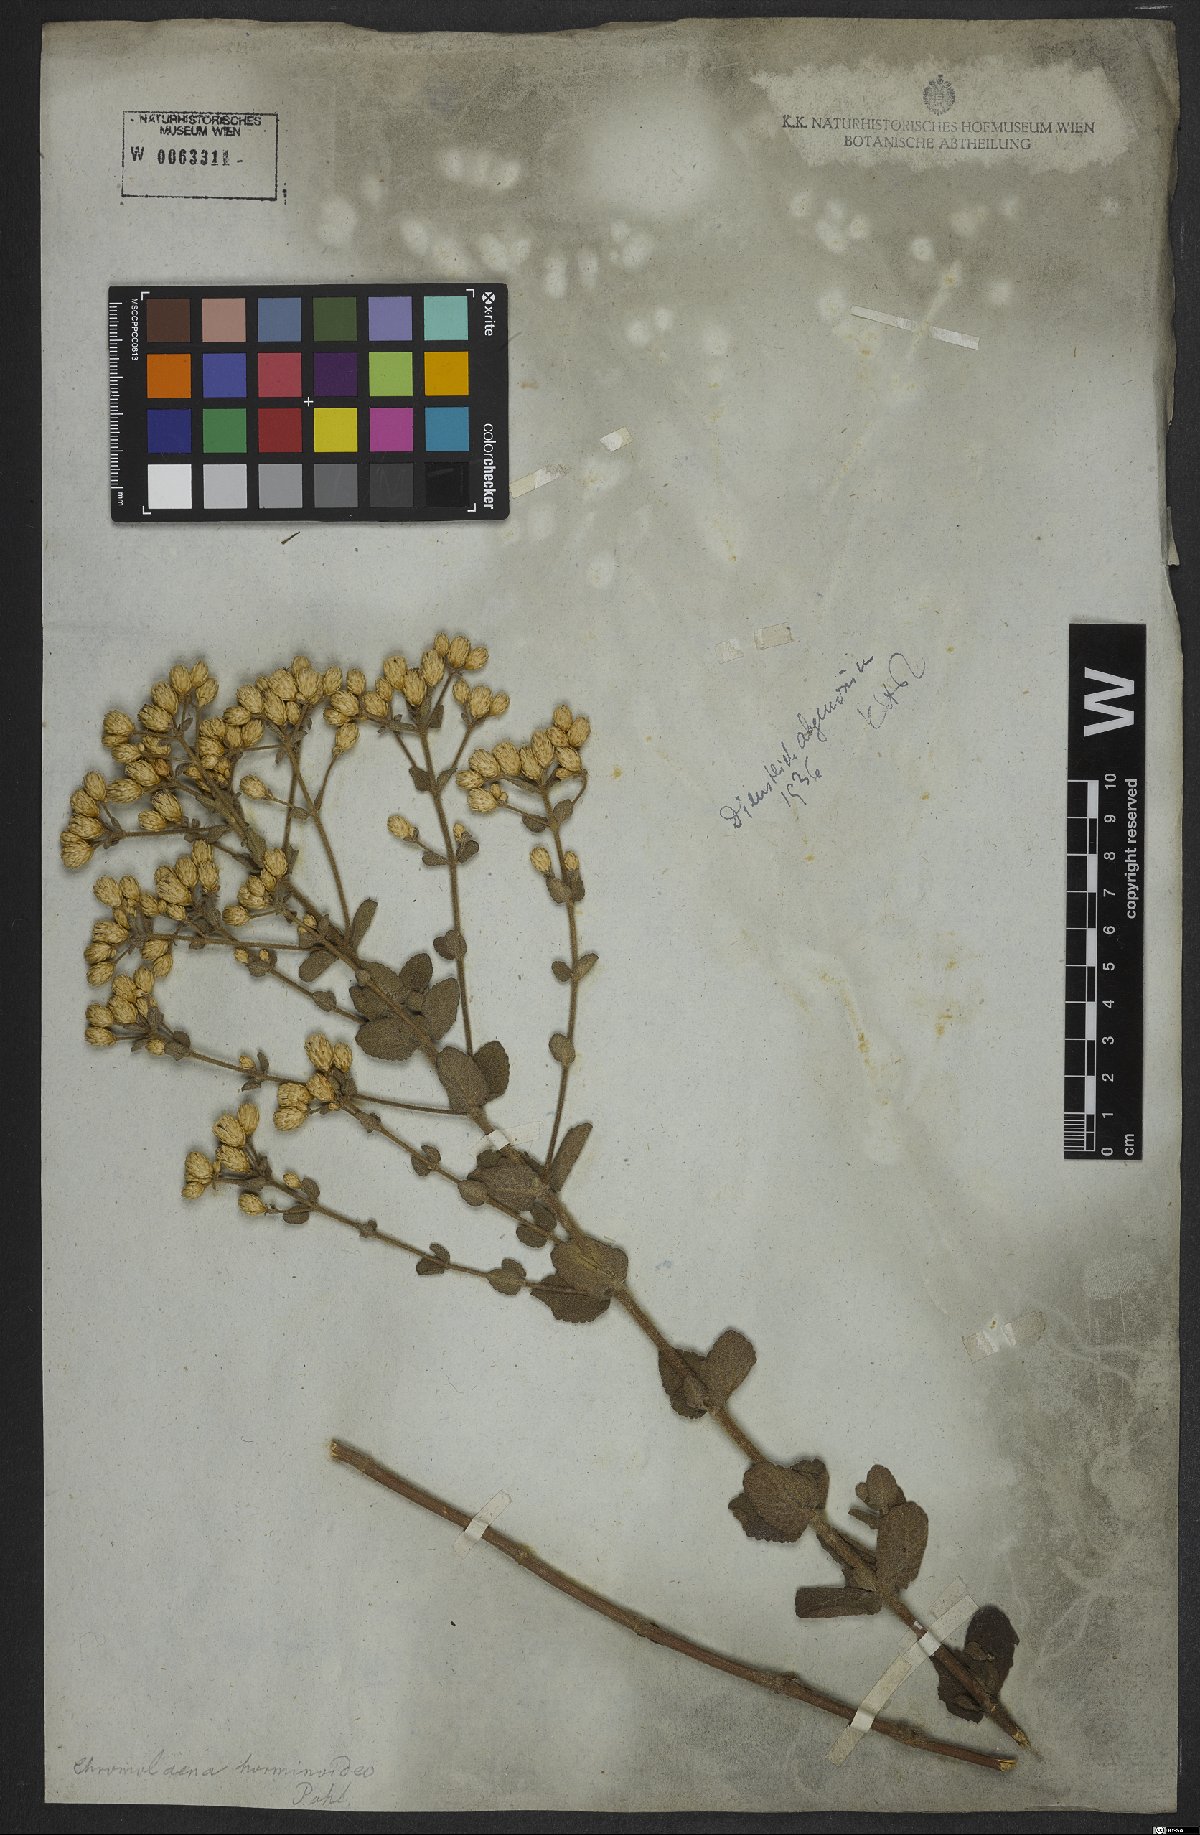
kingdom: Plantae
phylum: Tracheophyta
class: Magnoliopsida
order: Asterales
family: Asteraceae
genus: Chromolaena
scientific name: Chromolaena horminoides
